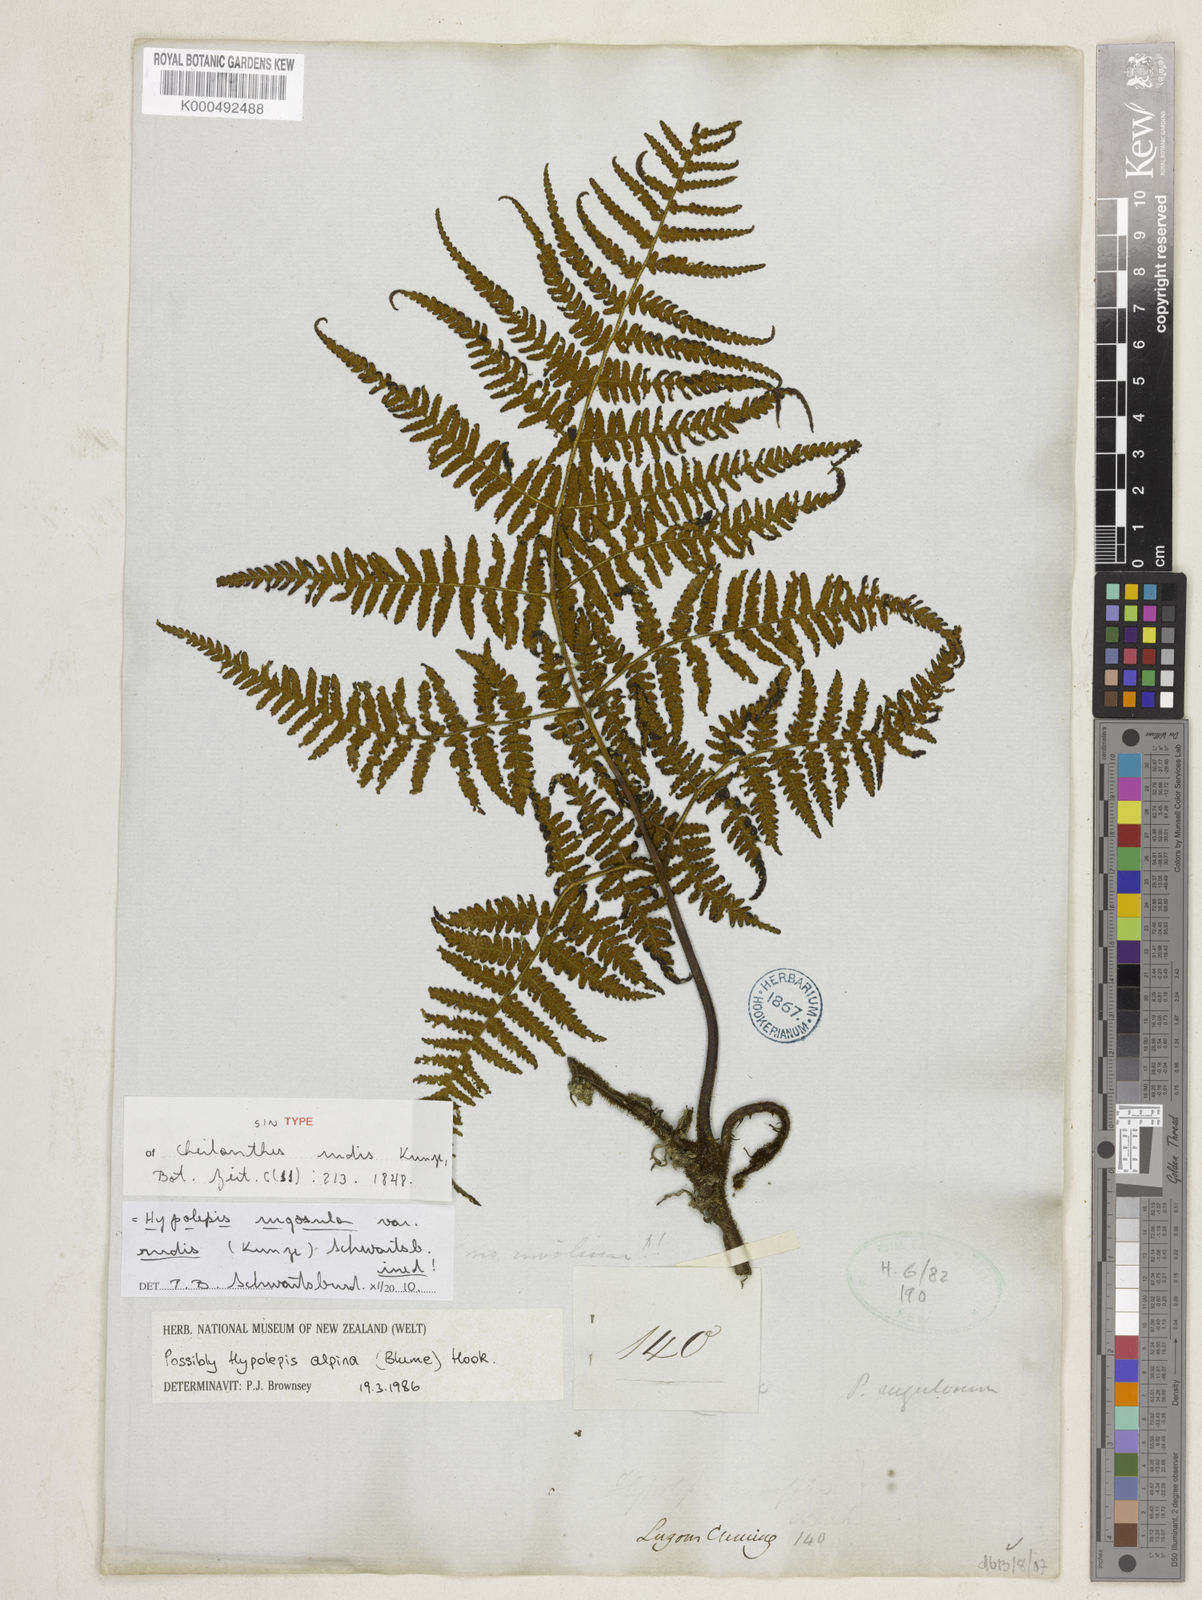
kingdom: Plantae
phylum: Tracheophyta
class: Polypodiopsida
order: Polypodiales
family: Dennstaedtiaceae
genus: Hypolepis
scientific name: Hypolepis rugosula
